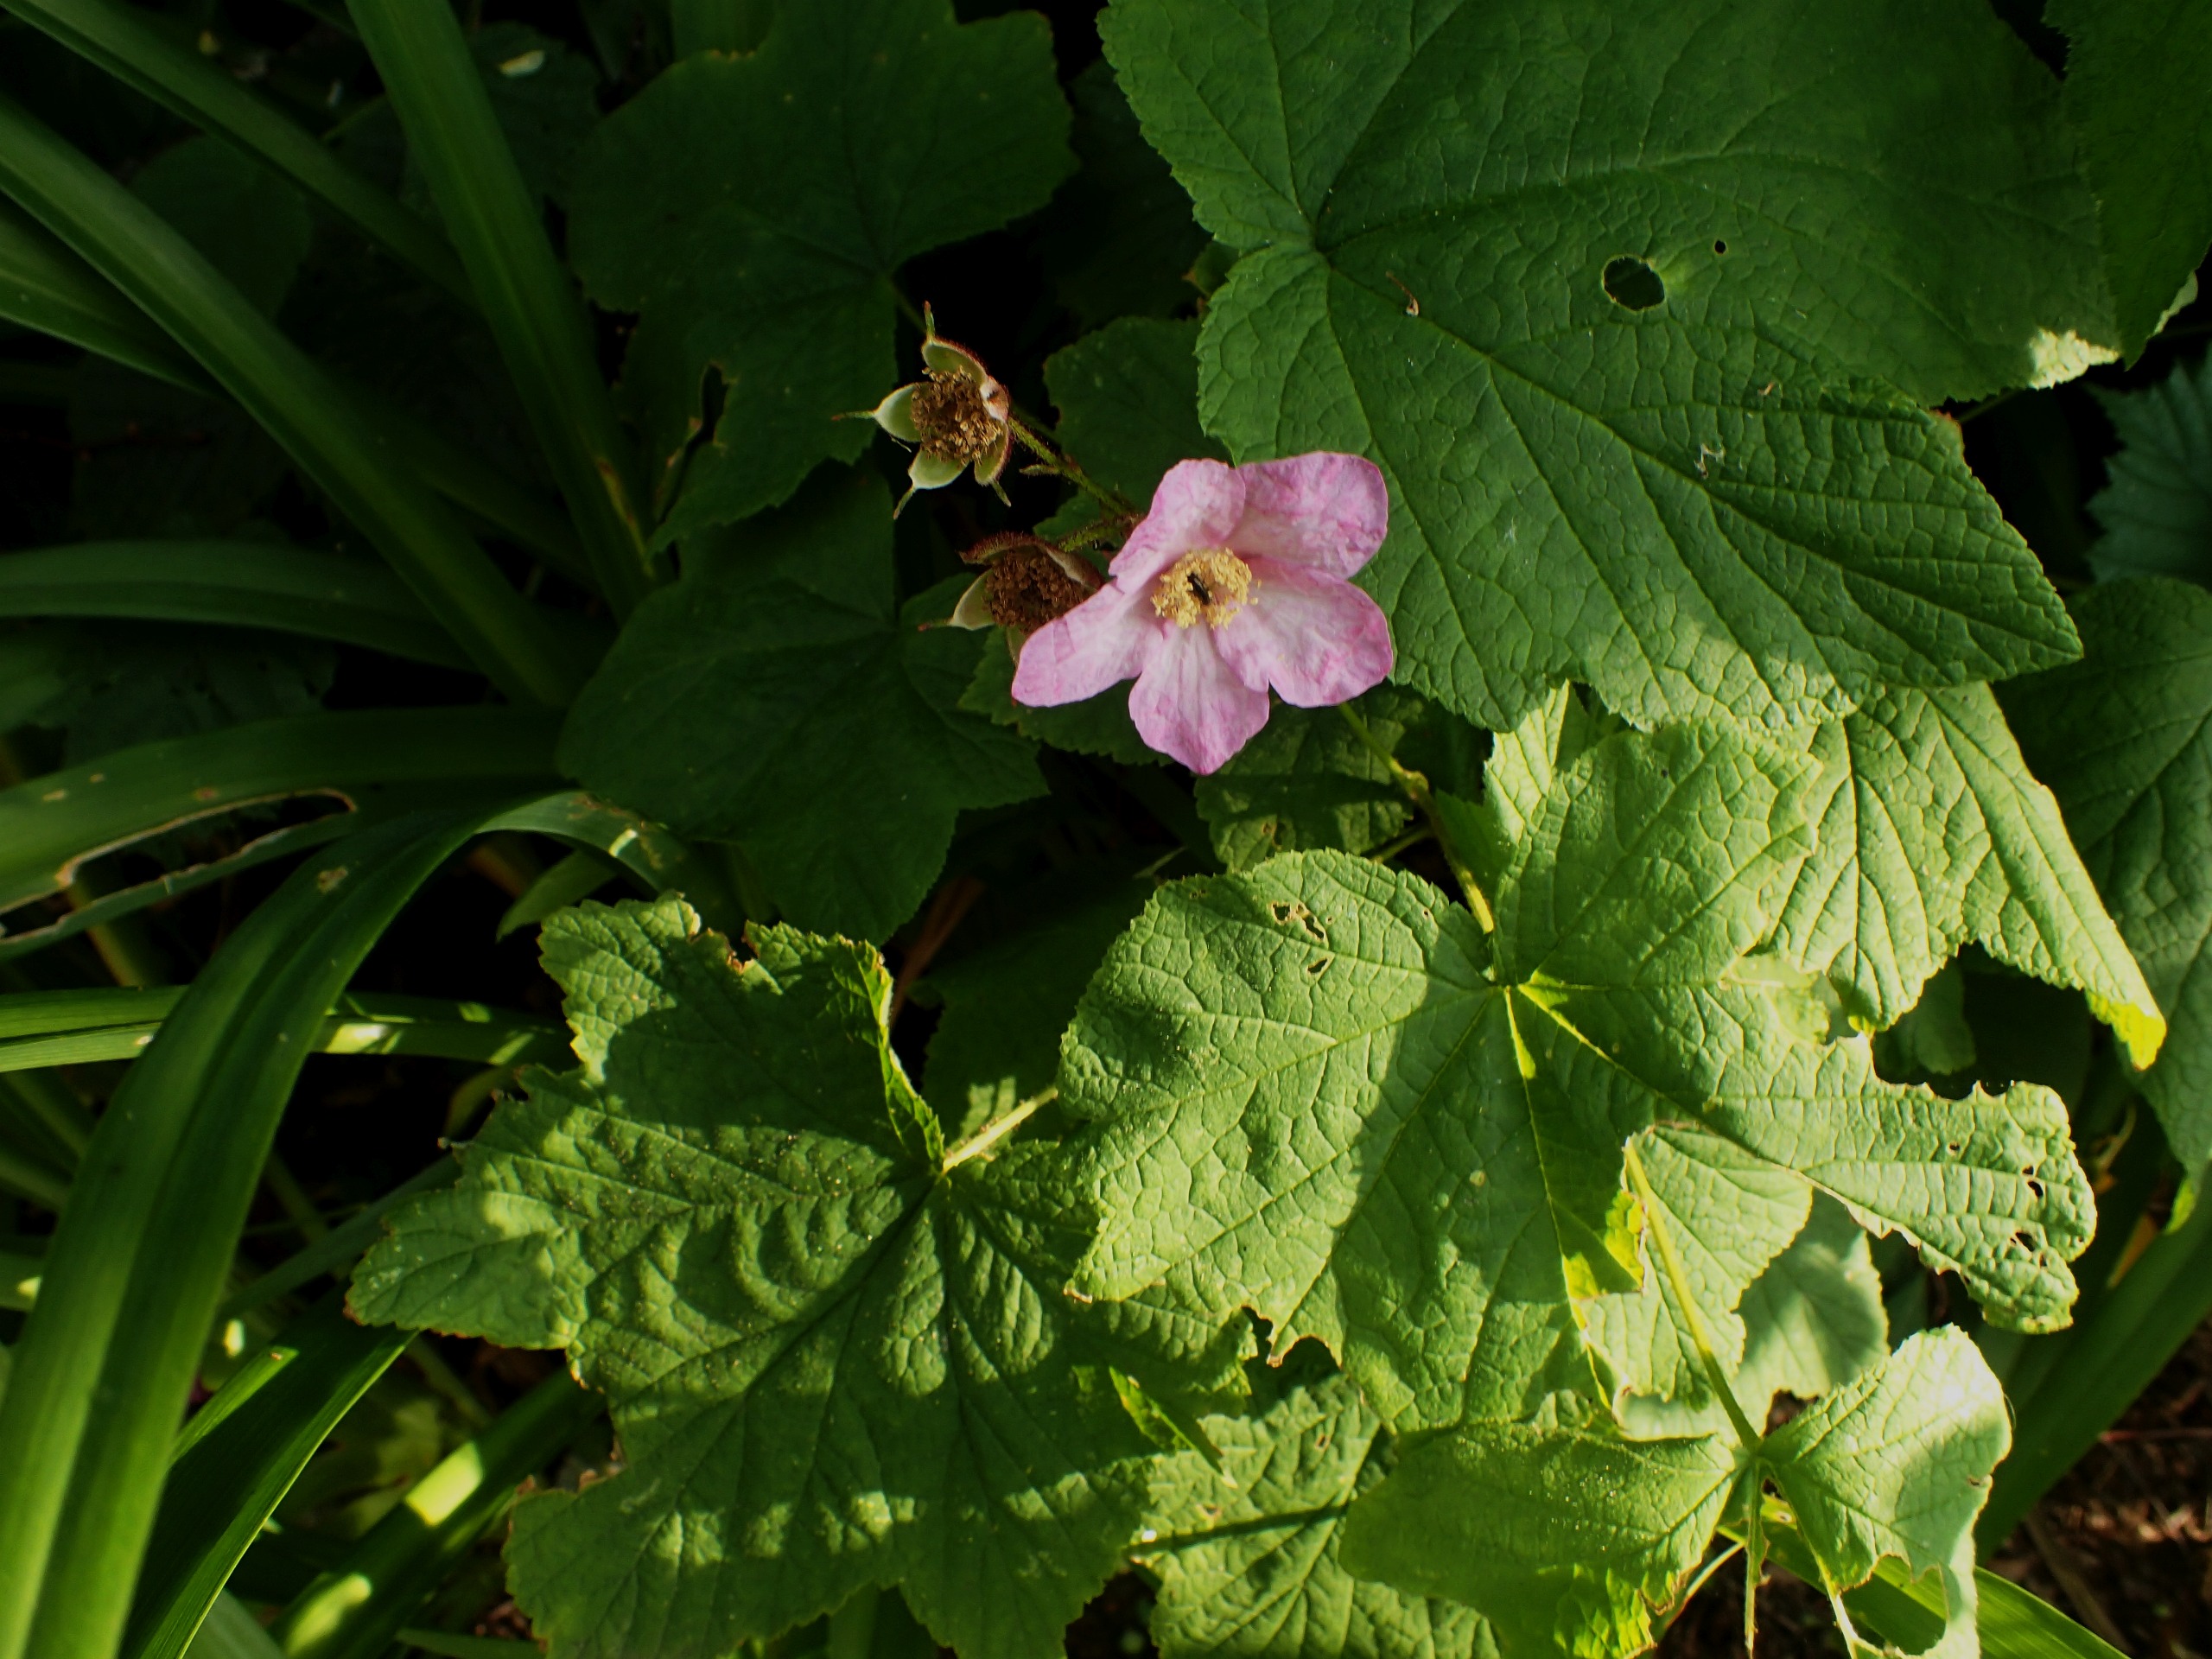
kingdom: Plantae
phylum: Tracheophyta
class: Magnoliopsida
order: Rosales
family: Rosaceae
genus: Rubus
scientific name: Rubus odoratus
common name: Rosen-brombær
